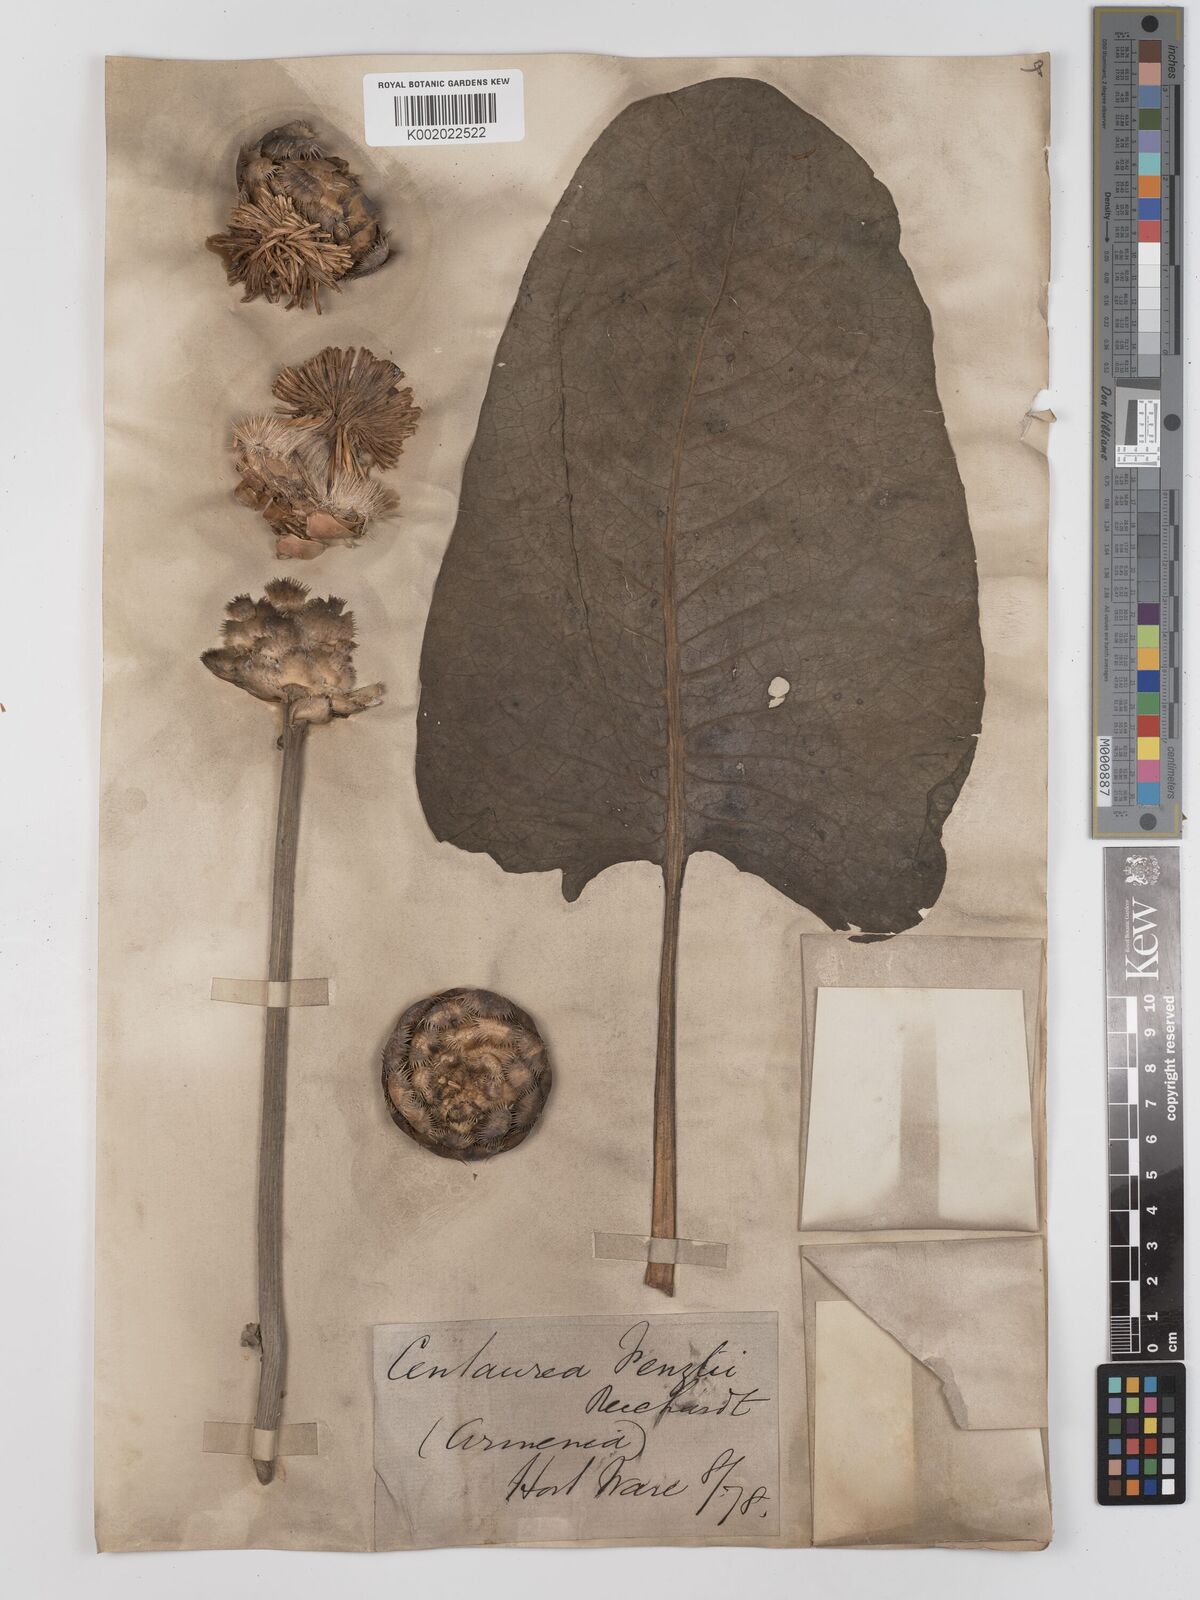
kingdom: Plantae
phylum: Tracheophyta
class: Magnoliopsida
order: Asterales
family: Asteraceae
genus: Centaurea
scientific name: Centaurea fenzlii
